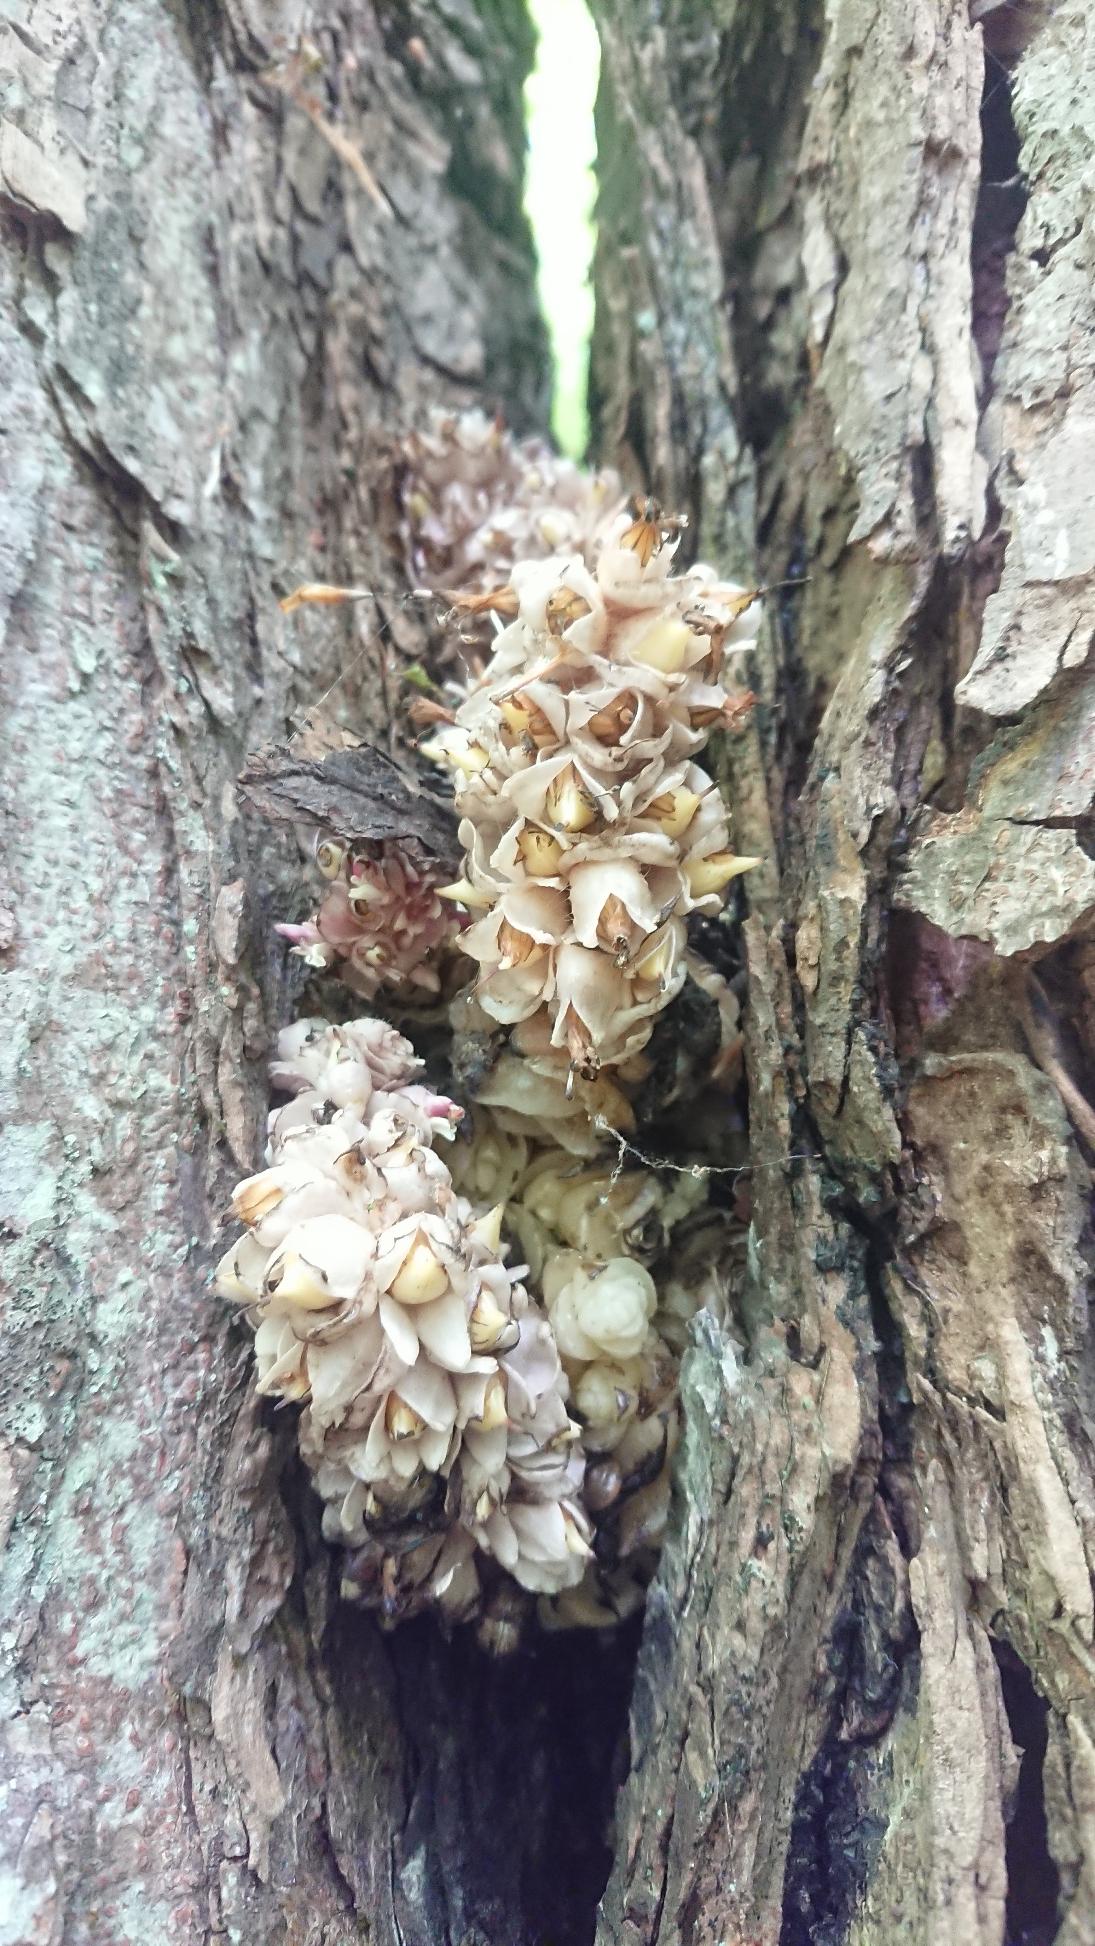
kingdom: Plantae
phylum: Tracheophyta
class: Magnoliopsida
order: Lamiales
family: Orobanchaceae
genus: Lathraea
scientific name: Lathraea squamaria
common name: Skælrod
